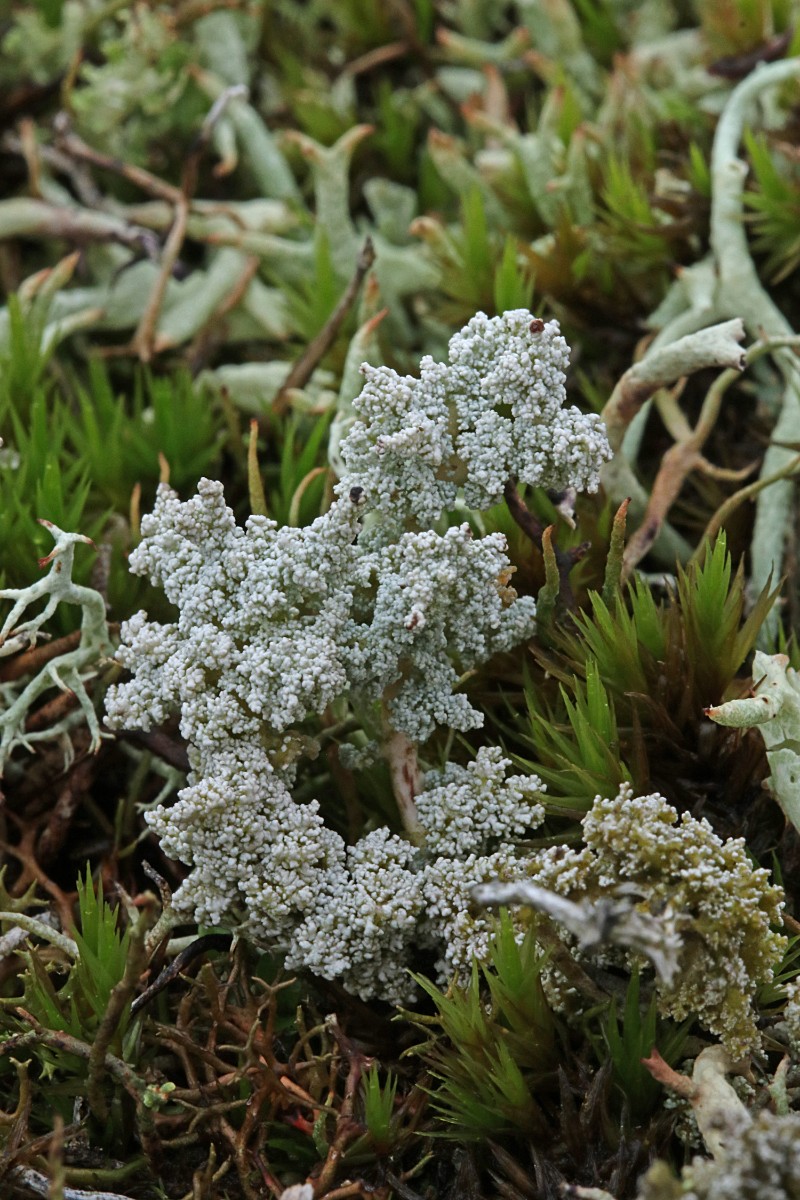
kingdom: Fungi
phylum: Ascomycota
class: Lecanoromycetes
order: Lecanorales
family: Stereocaulaceae
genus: Stereocaulon
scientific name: Stereocaulon saxatile
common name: klit-korallav
